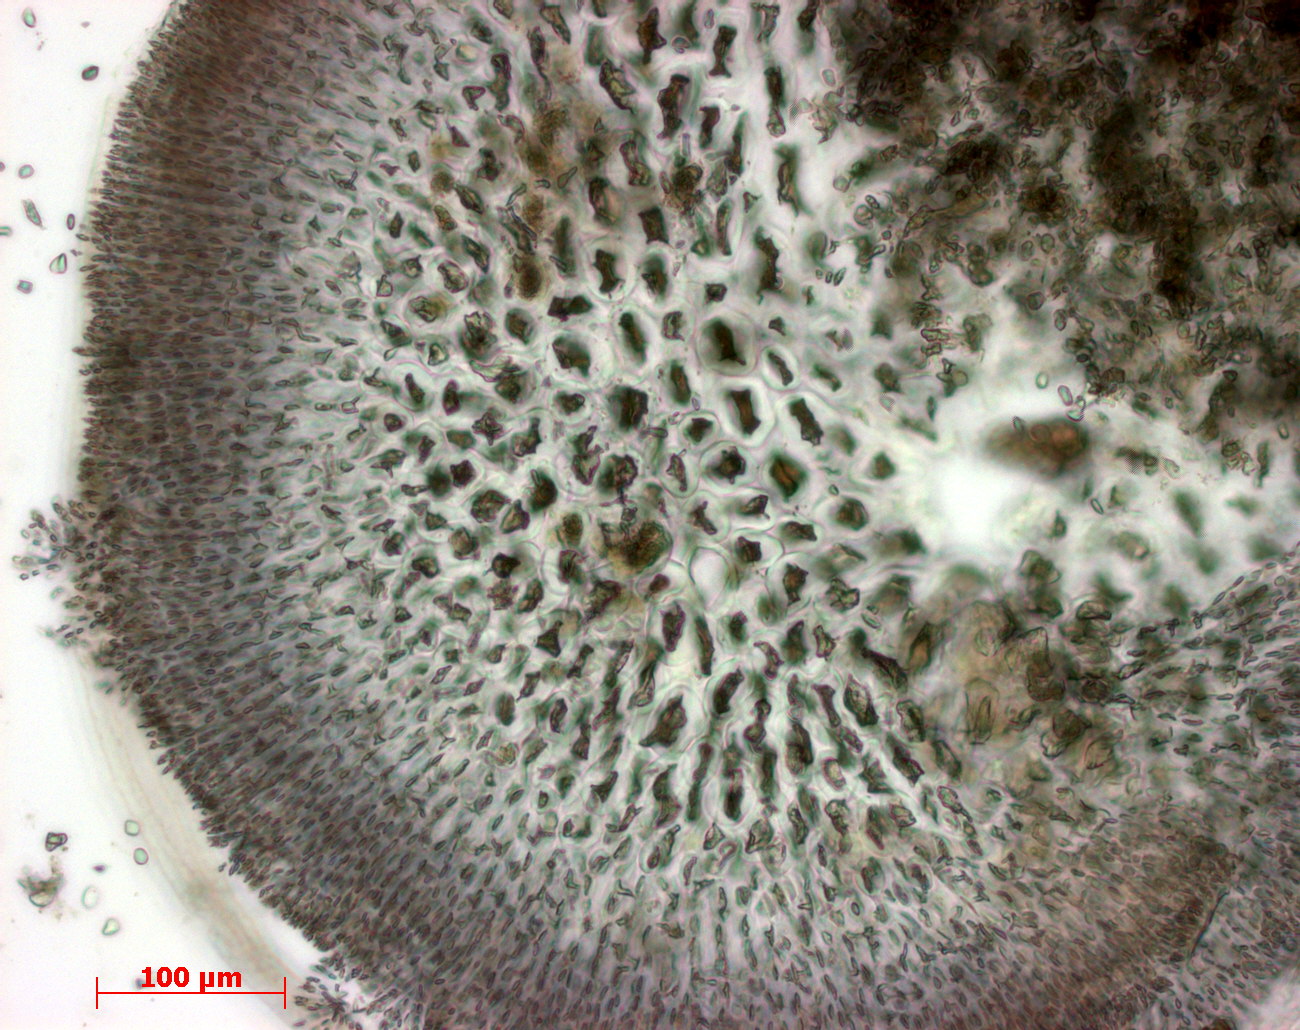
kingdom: Plantae
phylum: Rhodophyta
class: Florideophyceae
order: Gigartinales
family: Phyllophoraceae
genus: Gymnogongrus
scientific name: Gymnogongrus torulosus
